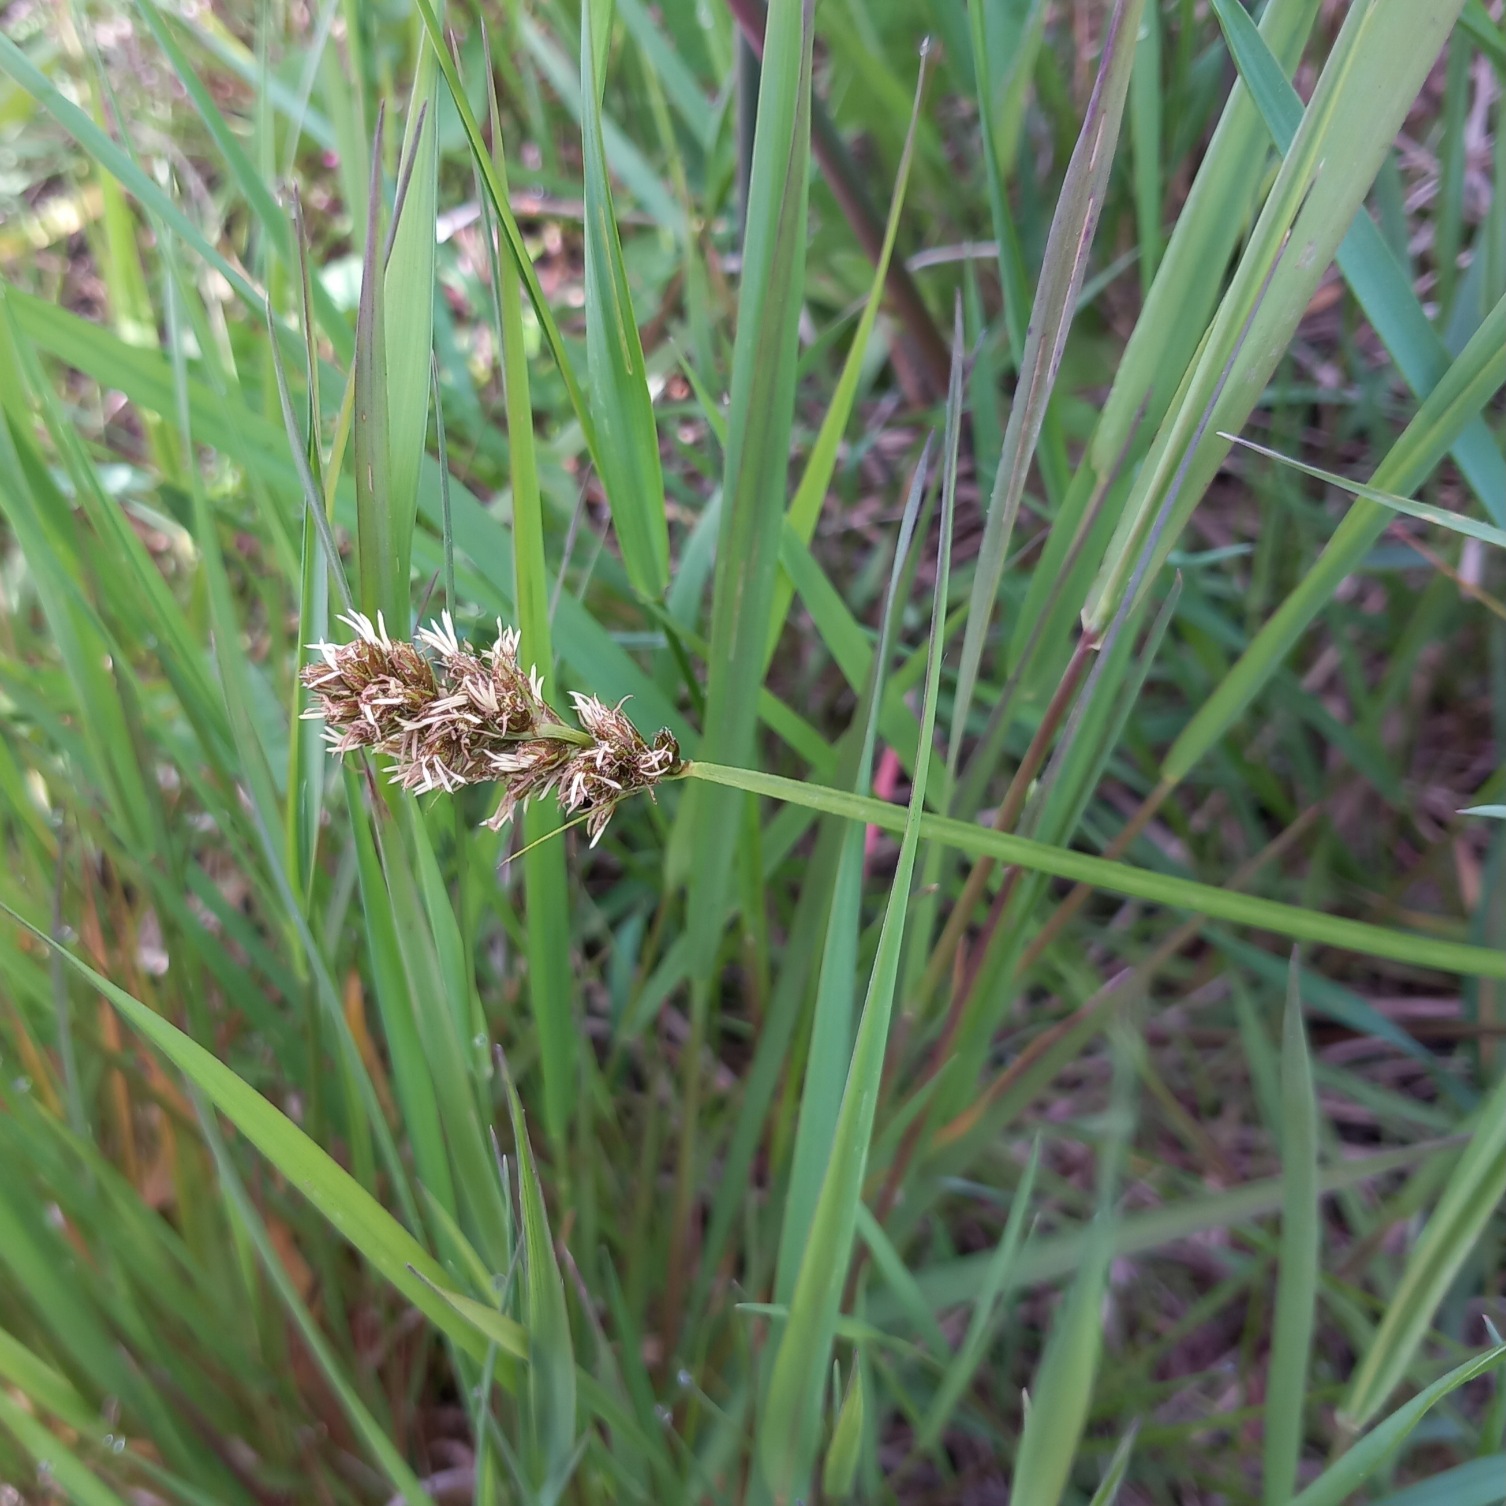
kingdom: Plantae
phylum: Tracheophyta
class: Liliopsida
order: Poales
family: Cyperaceae
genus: Carex
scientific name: Carex otrubae
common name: Sylt-star
